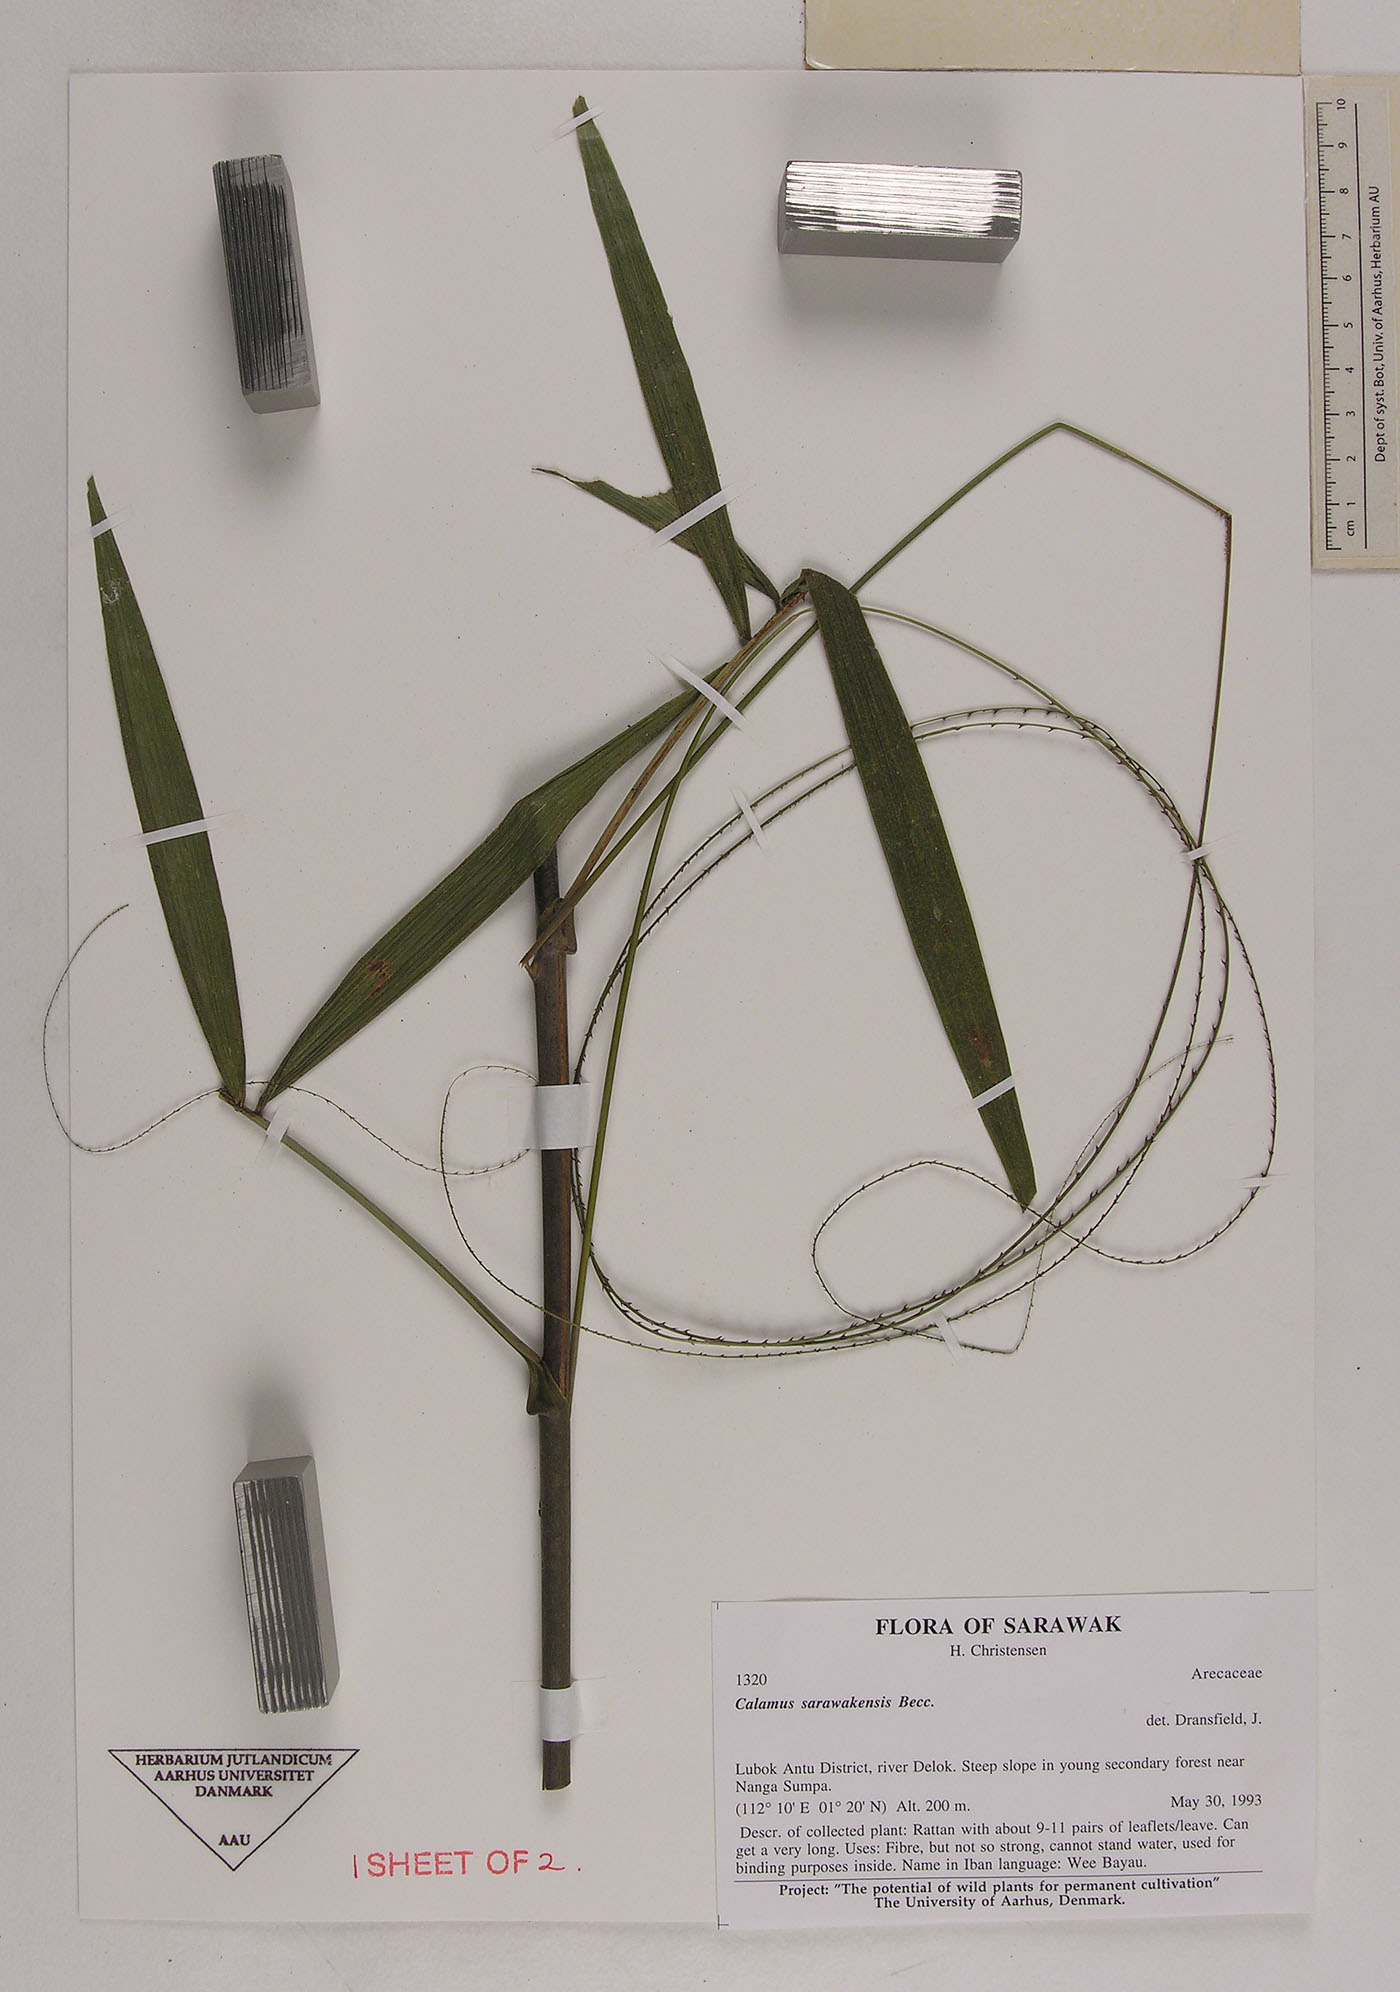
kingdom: Plantae
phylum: Tracheophyta
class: Liliopsida
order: Arecales
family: Arecaceae
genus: Calamus
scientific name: Calamus sarawakensis
